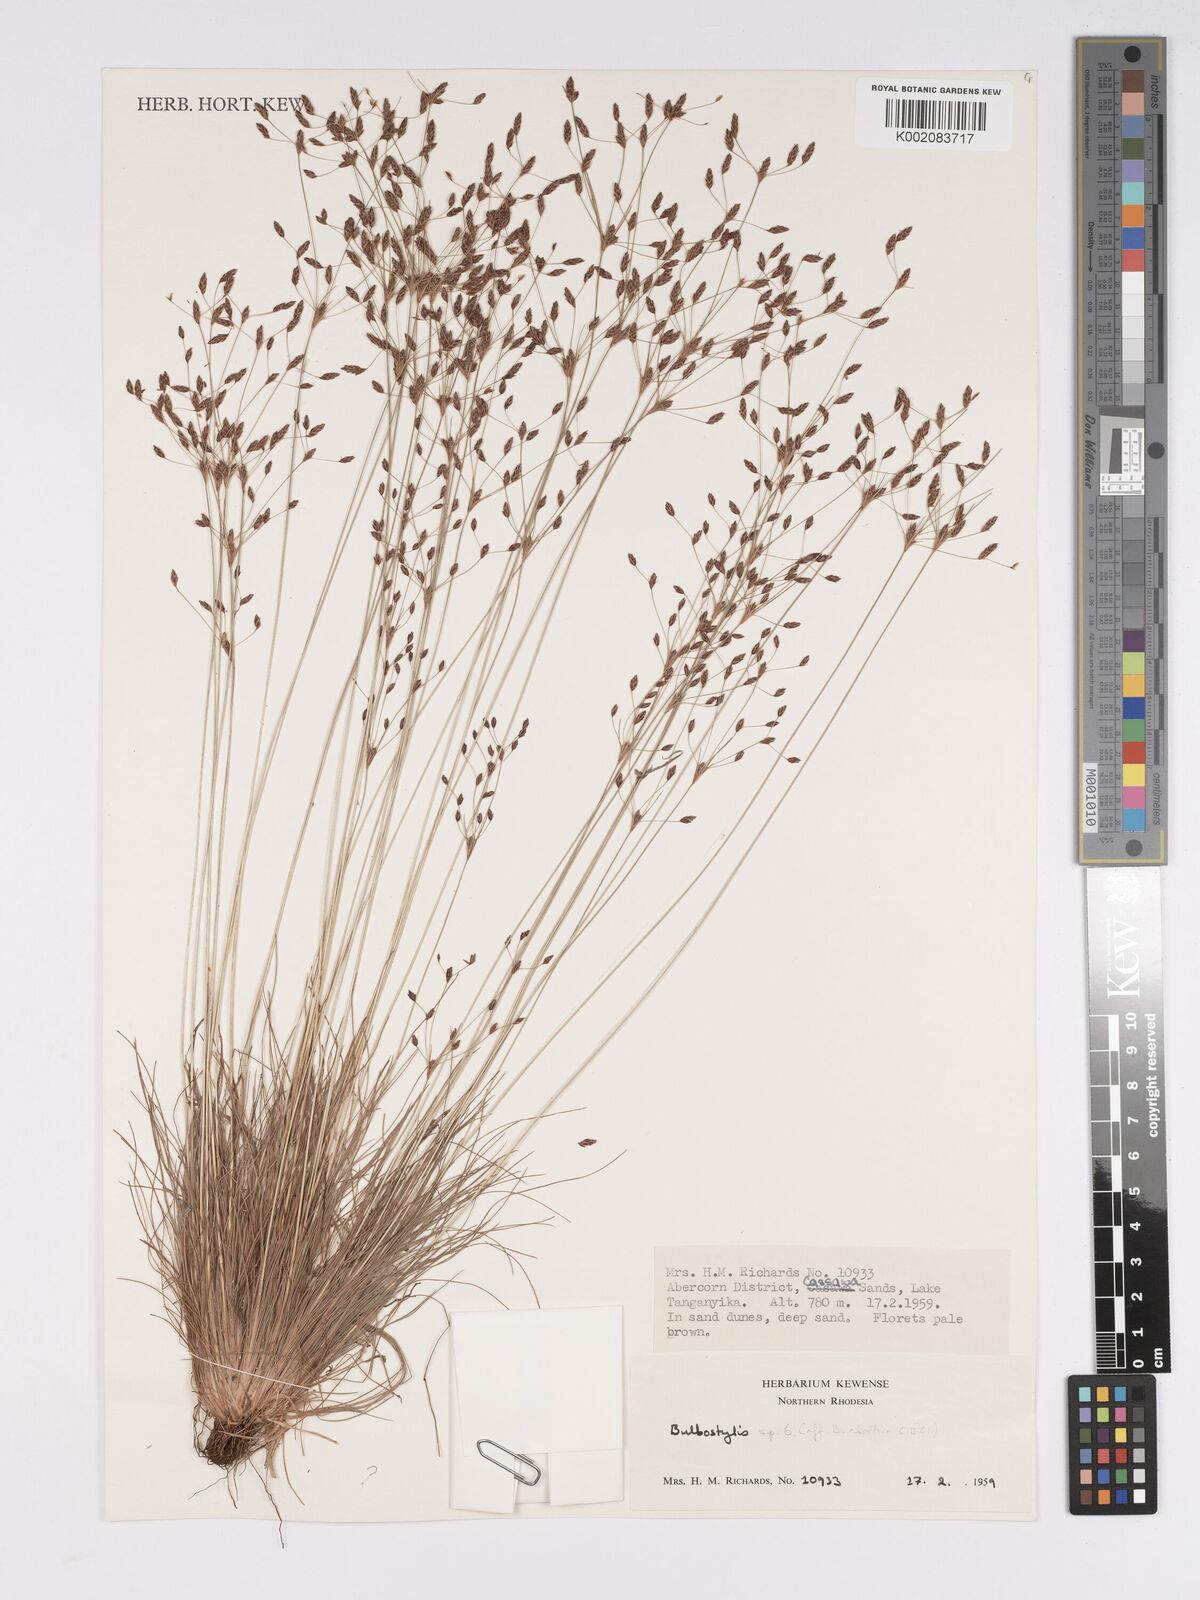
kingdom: Plantae
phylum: Tracheophyta
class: Liliopsida
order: Poales
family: Cyperaceae
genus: Bulbostylis
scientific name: Bulbostylis abortiva
